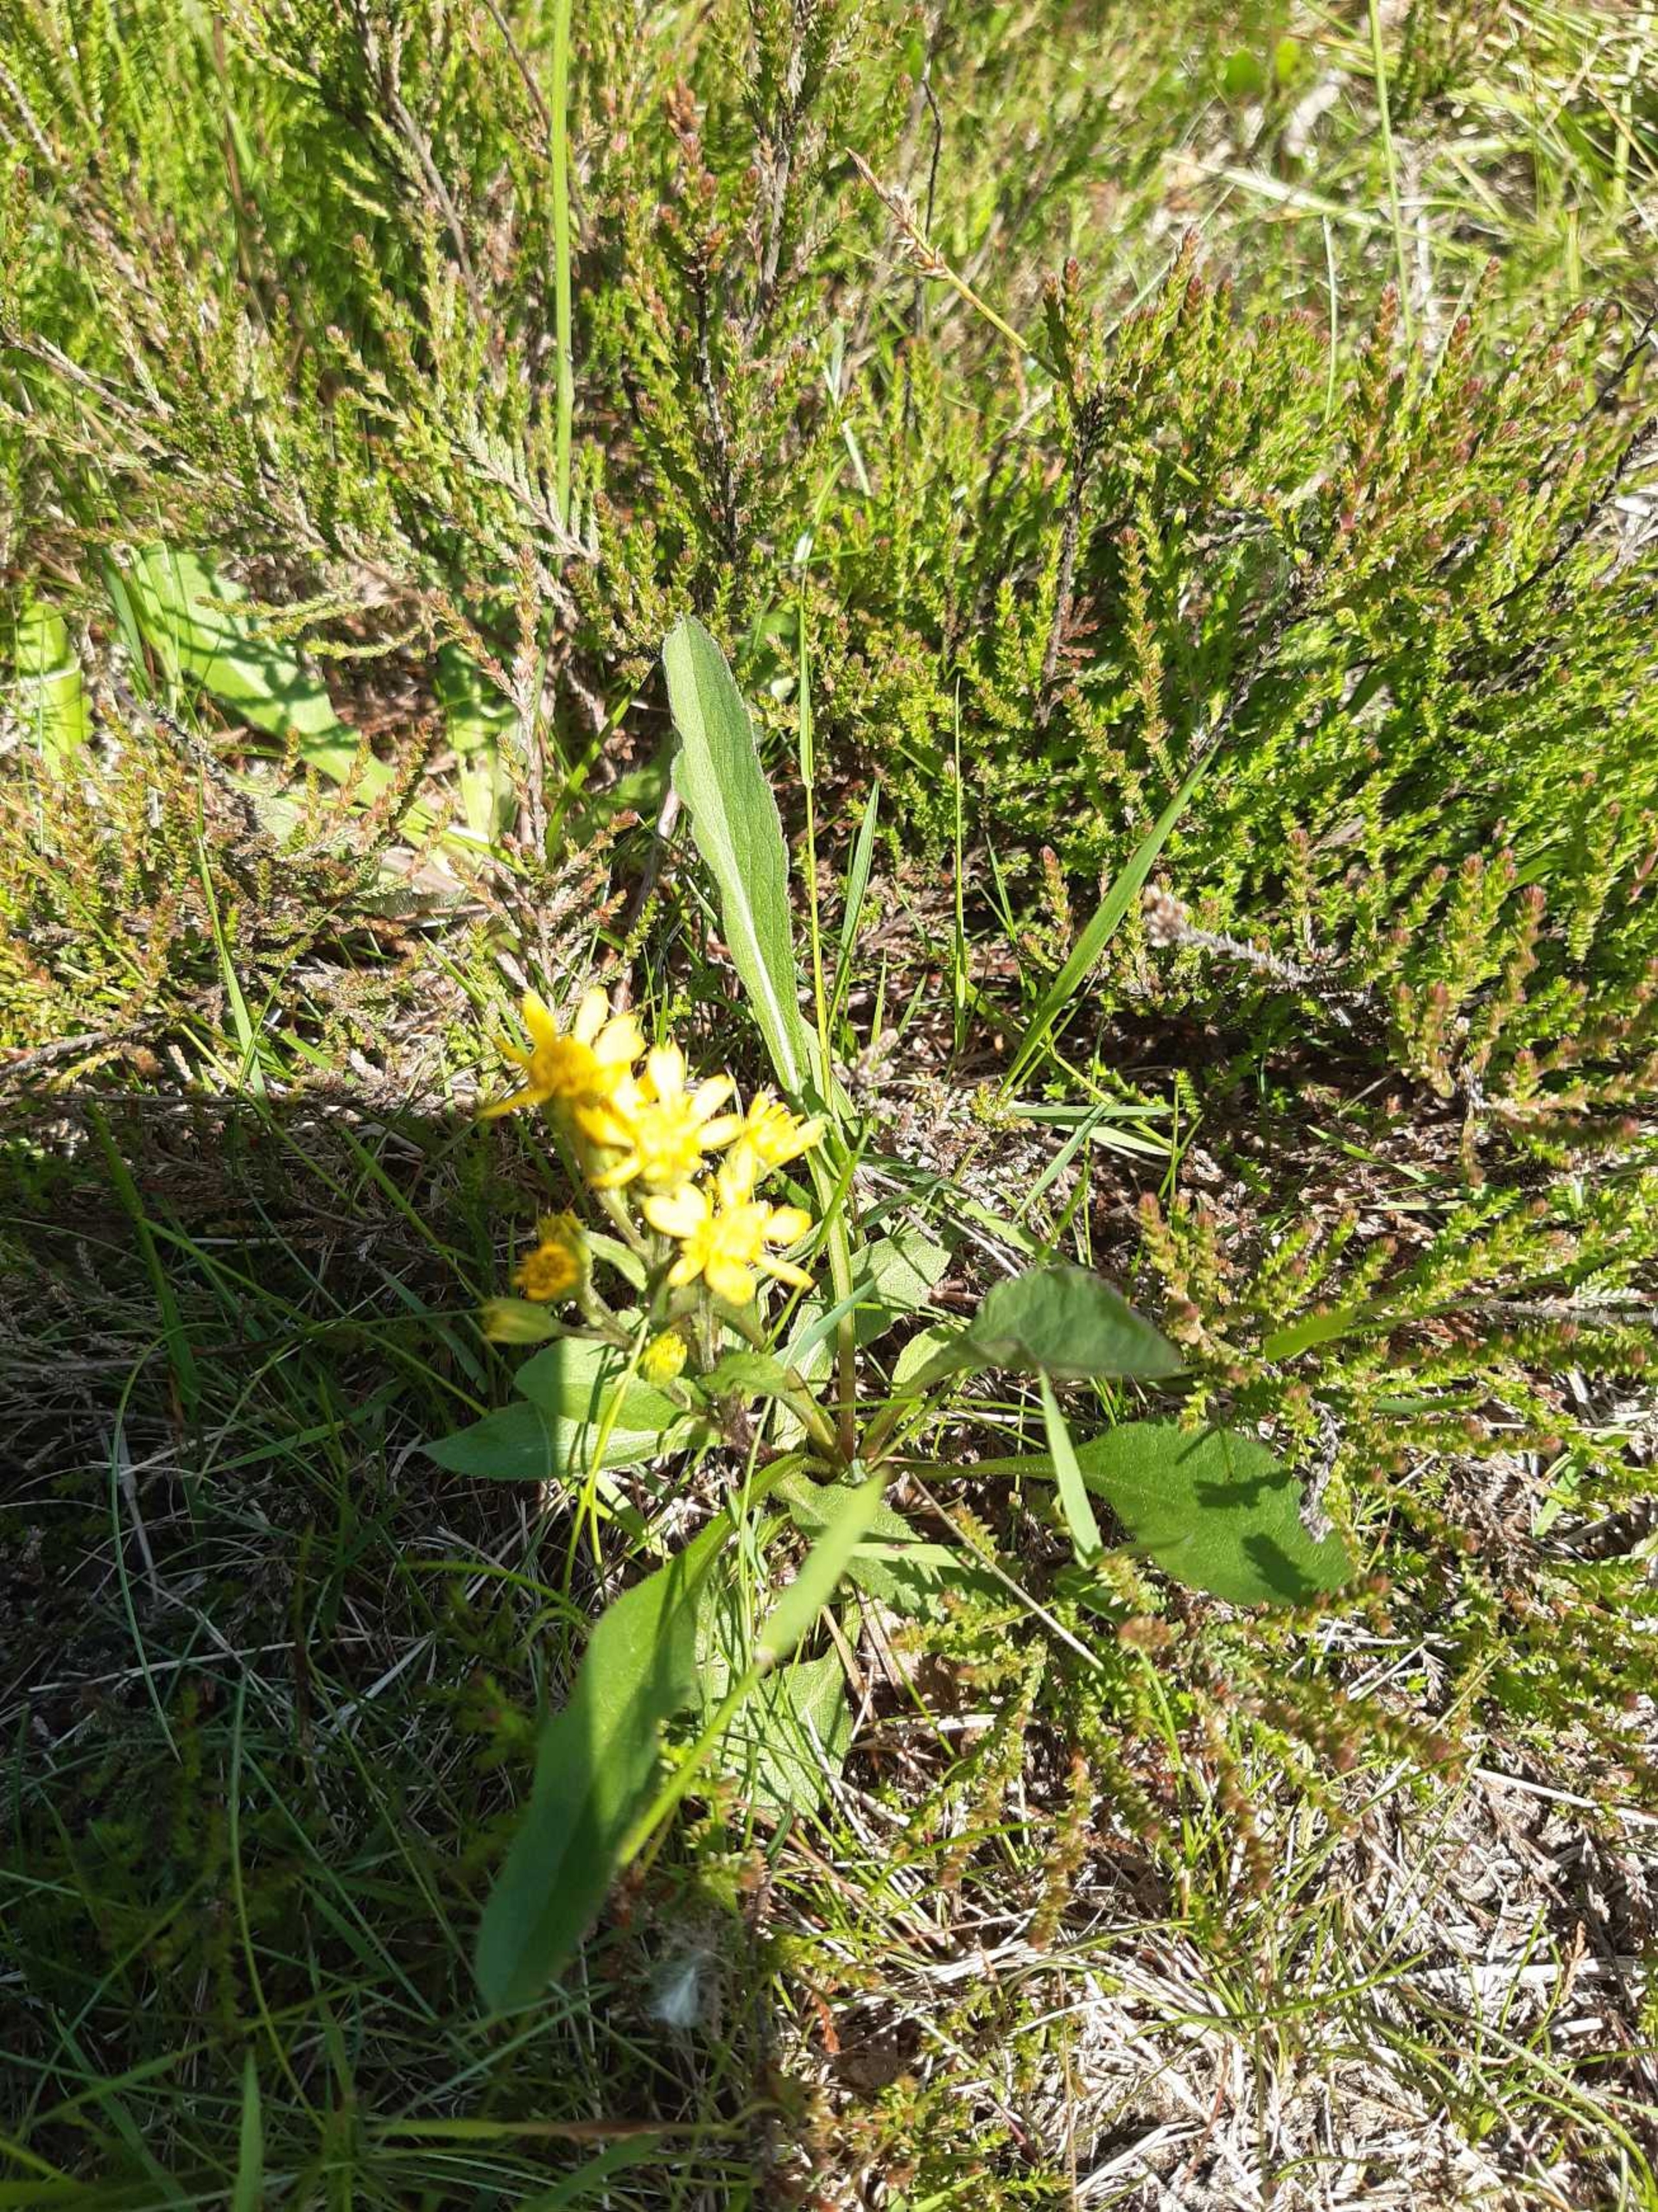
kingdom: Plantae
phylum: Tracheophyta
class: Magnoliopsida
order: Asterales
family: Asteraceae
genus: Solidago
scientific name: Solidago virgaurea
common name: Almindelig gyldenris
